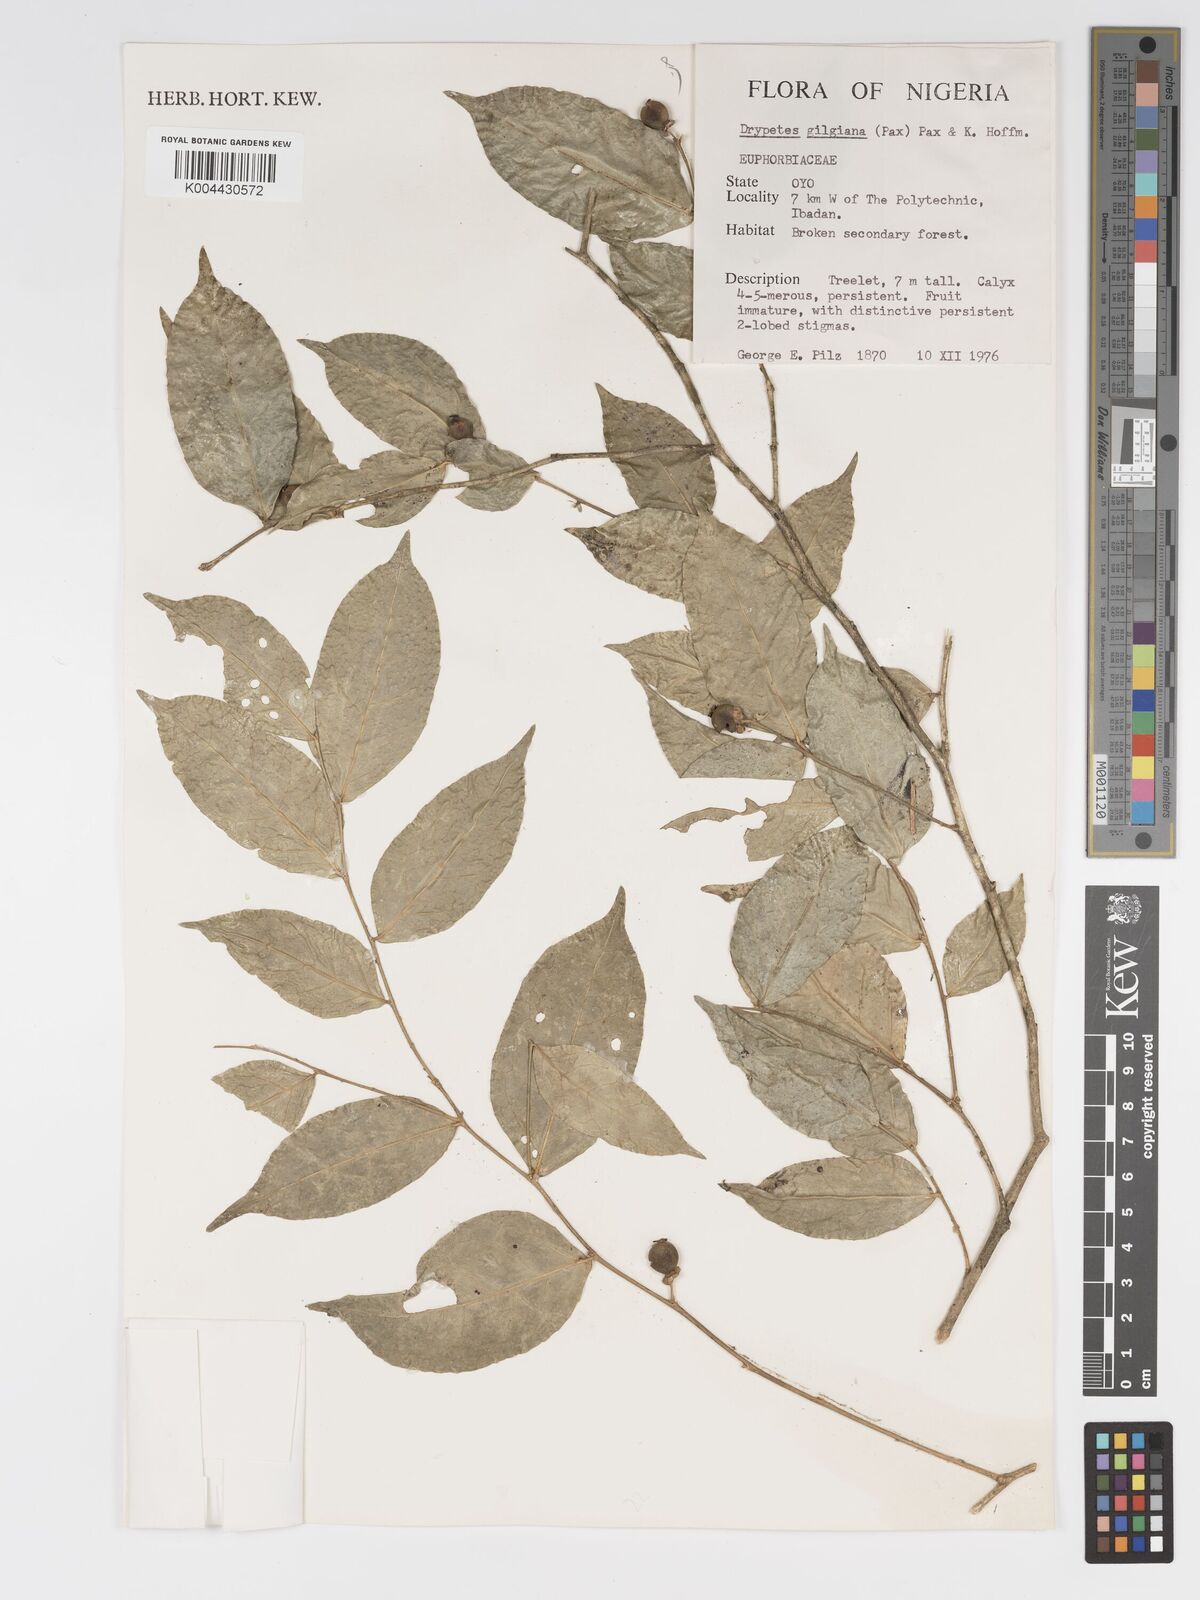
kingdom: Plantae
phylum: Tracheophyta
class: Magnoliopsida
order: Malpighiales
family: Putranjivaceae
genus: Drypetes
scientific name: Drypetes gilgiana
